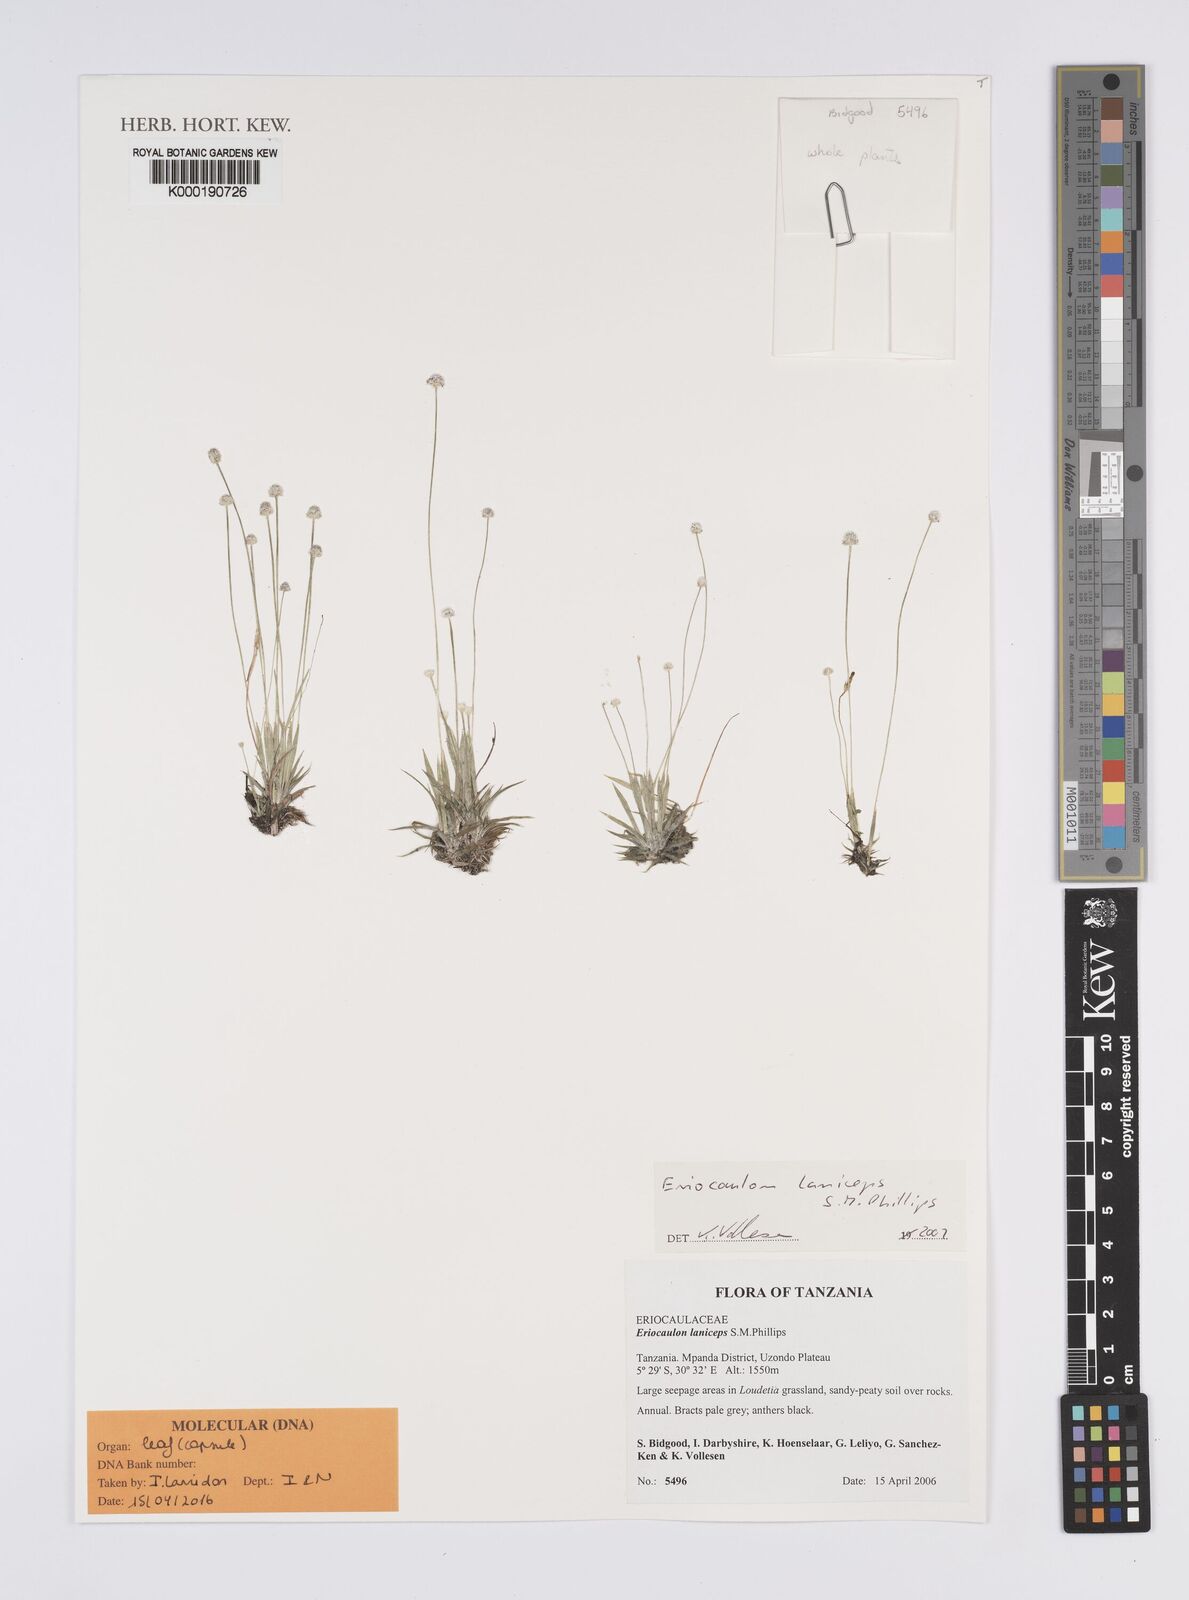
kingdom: Plantae
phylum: Tracheophyta
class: Liliopsida
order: Poales
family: Eriocaulaceae
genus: Eriocaulon
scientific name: Eriocaulon laniceps
